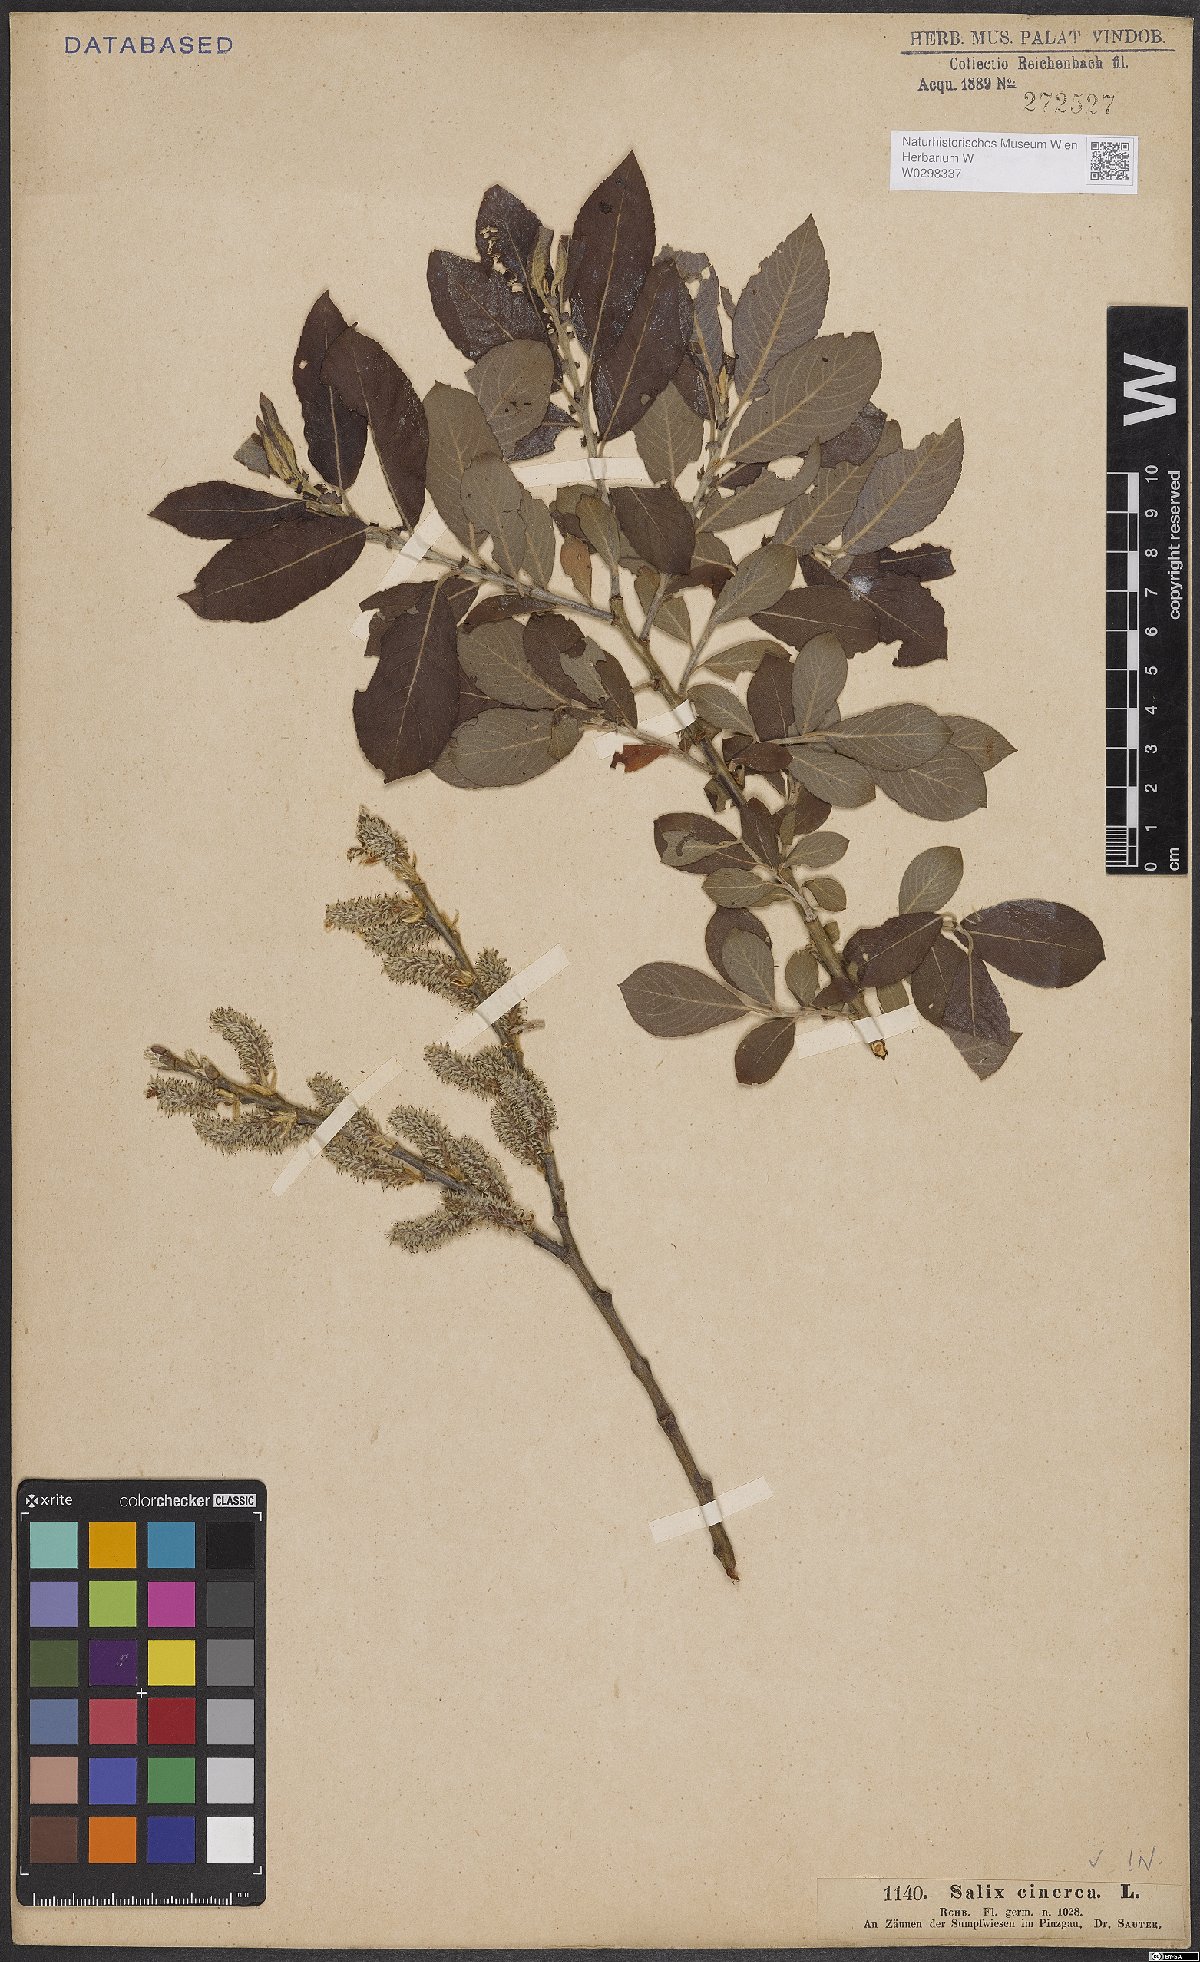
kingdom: Plantae
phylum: Tracheophyta
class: Magnoliopsida
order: Malpighiales
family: Salicaceae
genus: Salix
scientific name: Salix cinerea
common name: Common sallow
